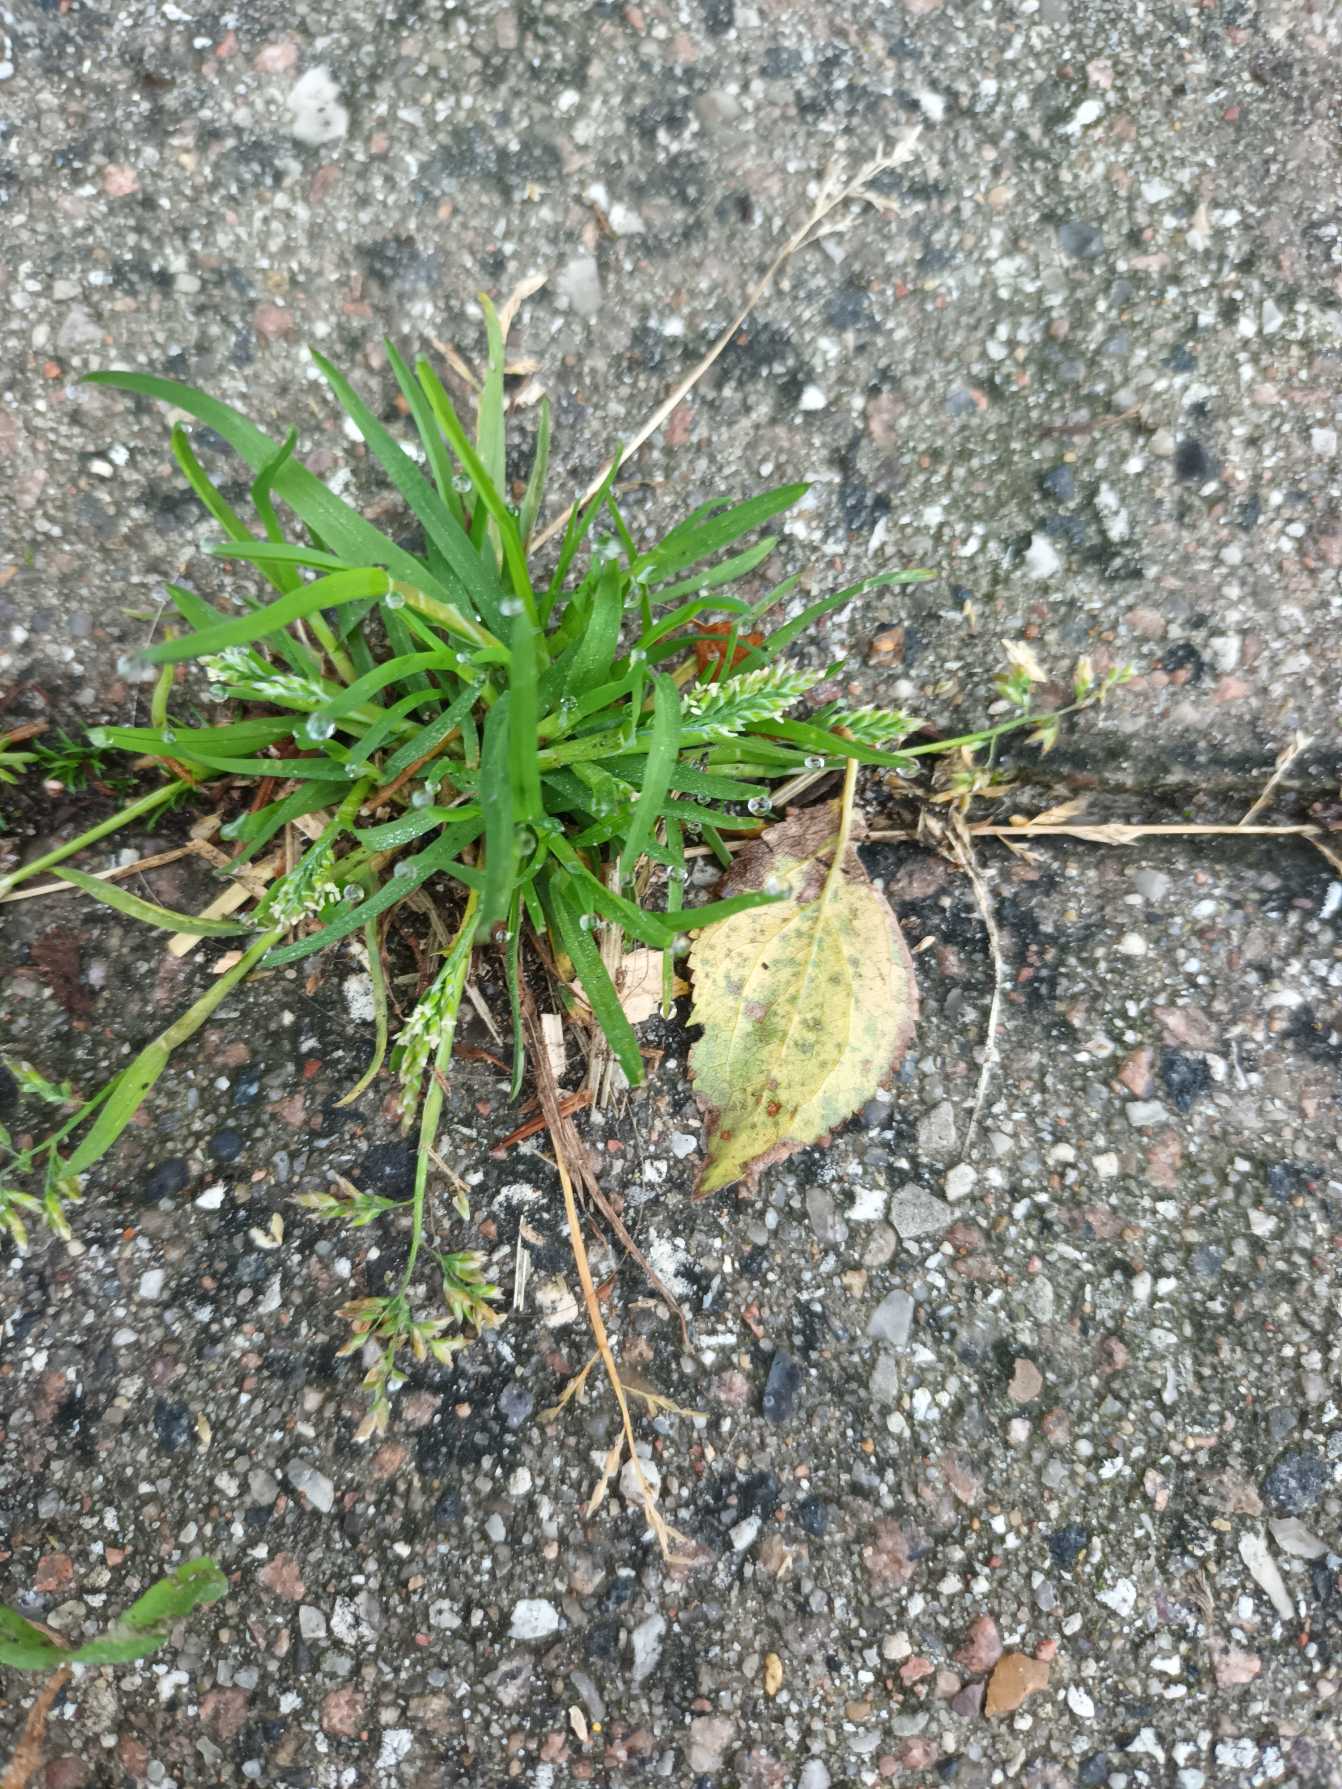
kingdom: Plantae
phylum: Tracheophyta
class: Liliopsida
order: Poales
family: Poaceae
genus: Poa
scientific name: Poa annua
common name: Enårig rapgræs
